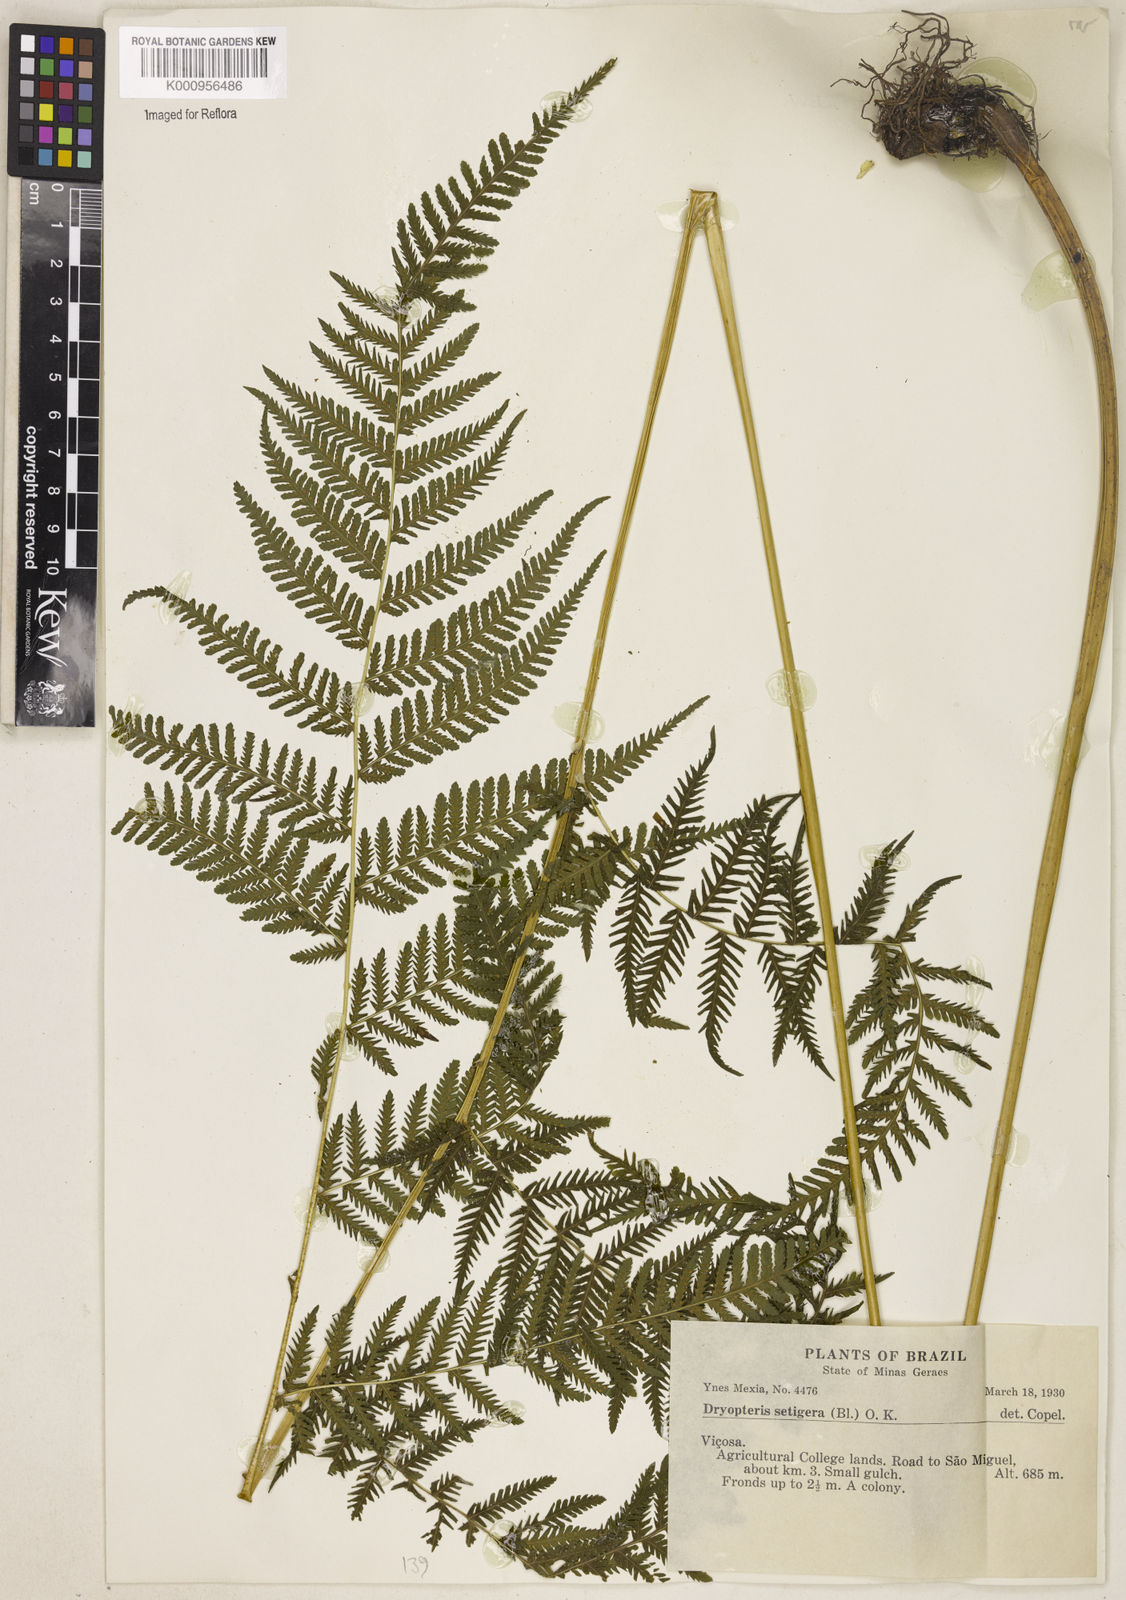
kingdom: Plantae
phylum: Tracheophyta
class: Polypodiopsida
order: Polypodiales
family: Thelypteridaceae
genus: Macrothelypteris
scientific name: Macrothelypteris torresiana
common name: Swordfern
